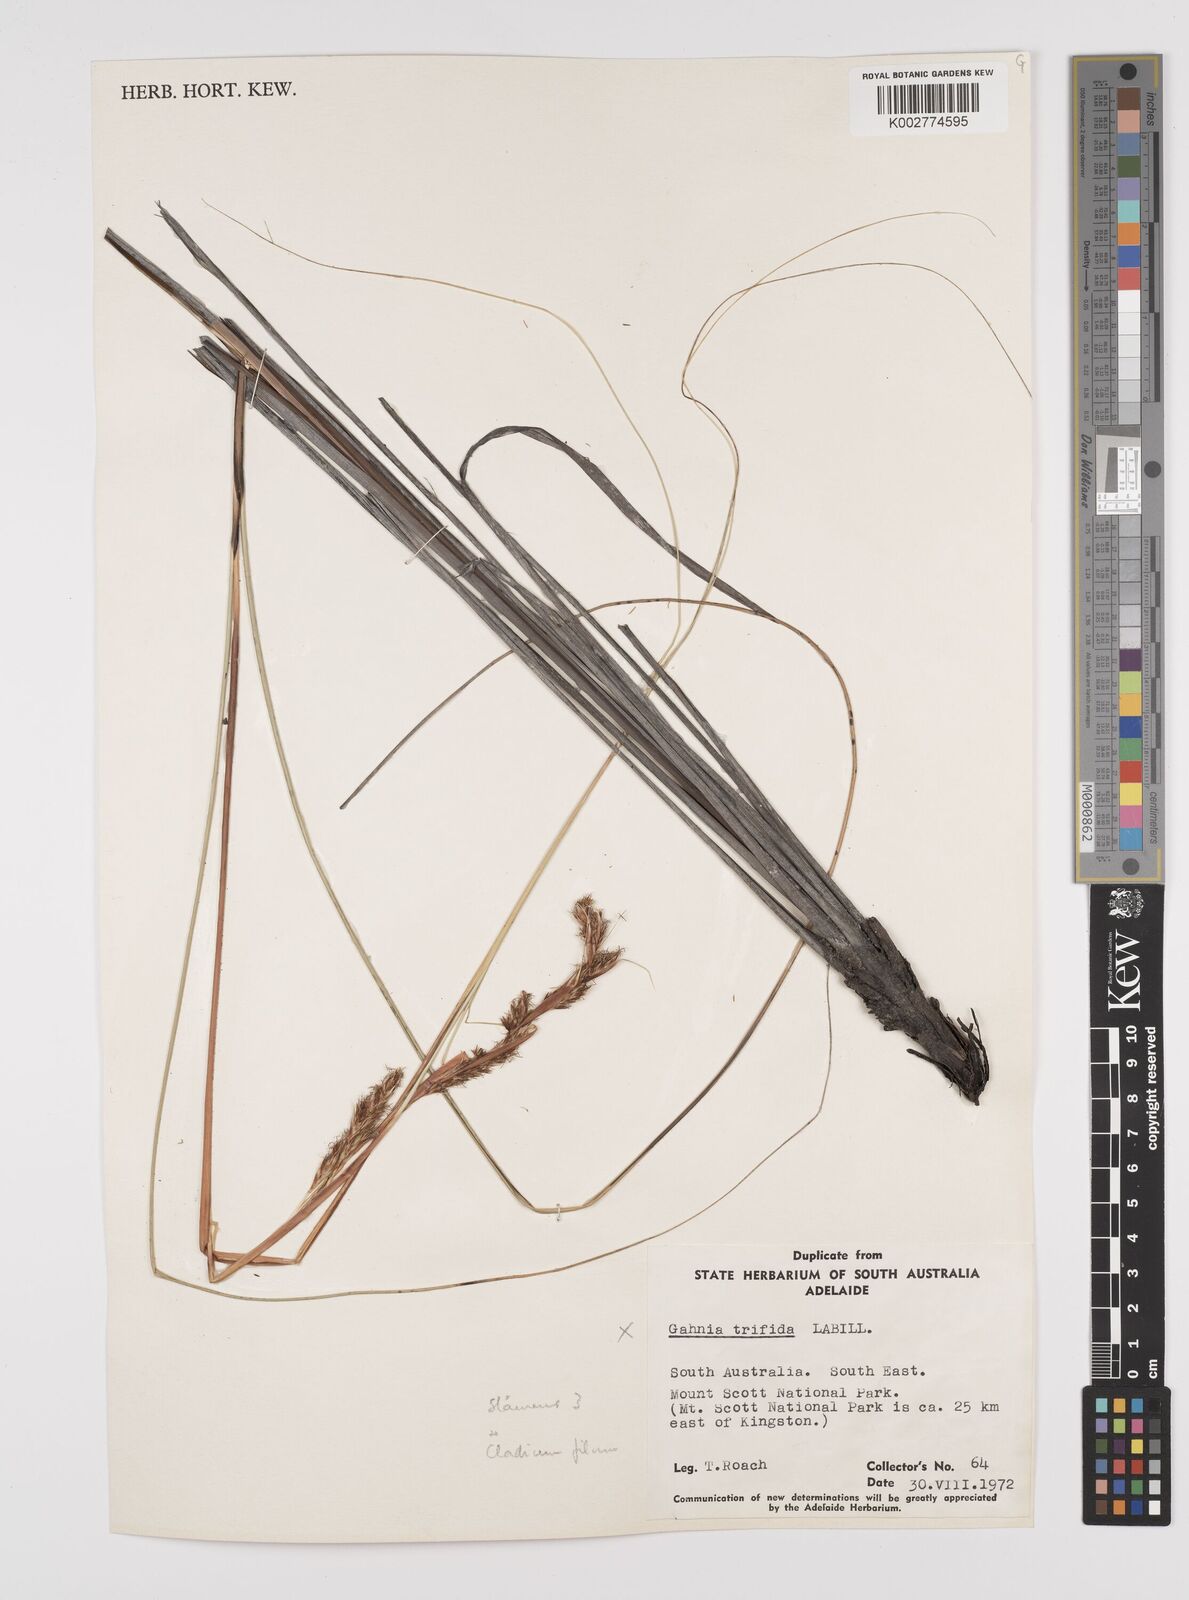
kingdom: Plantae
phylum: Tracheophyta
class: Liliopsida
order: Poales
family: Cyperaceae
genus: Gahnia
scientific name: Gahnia filum
